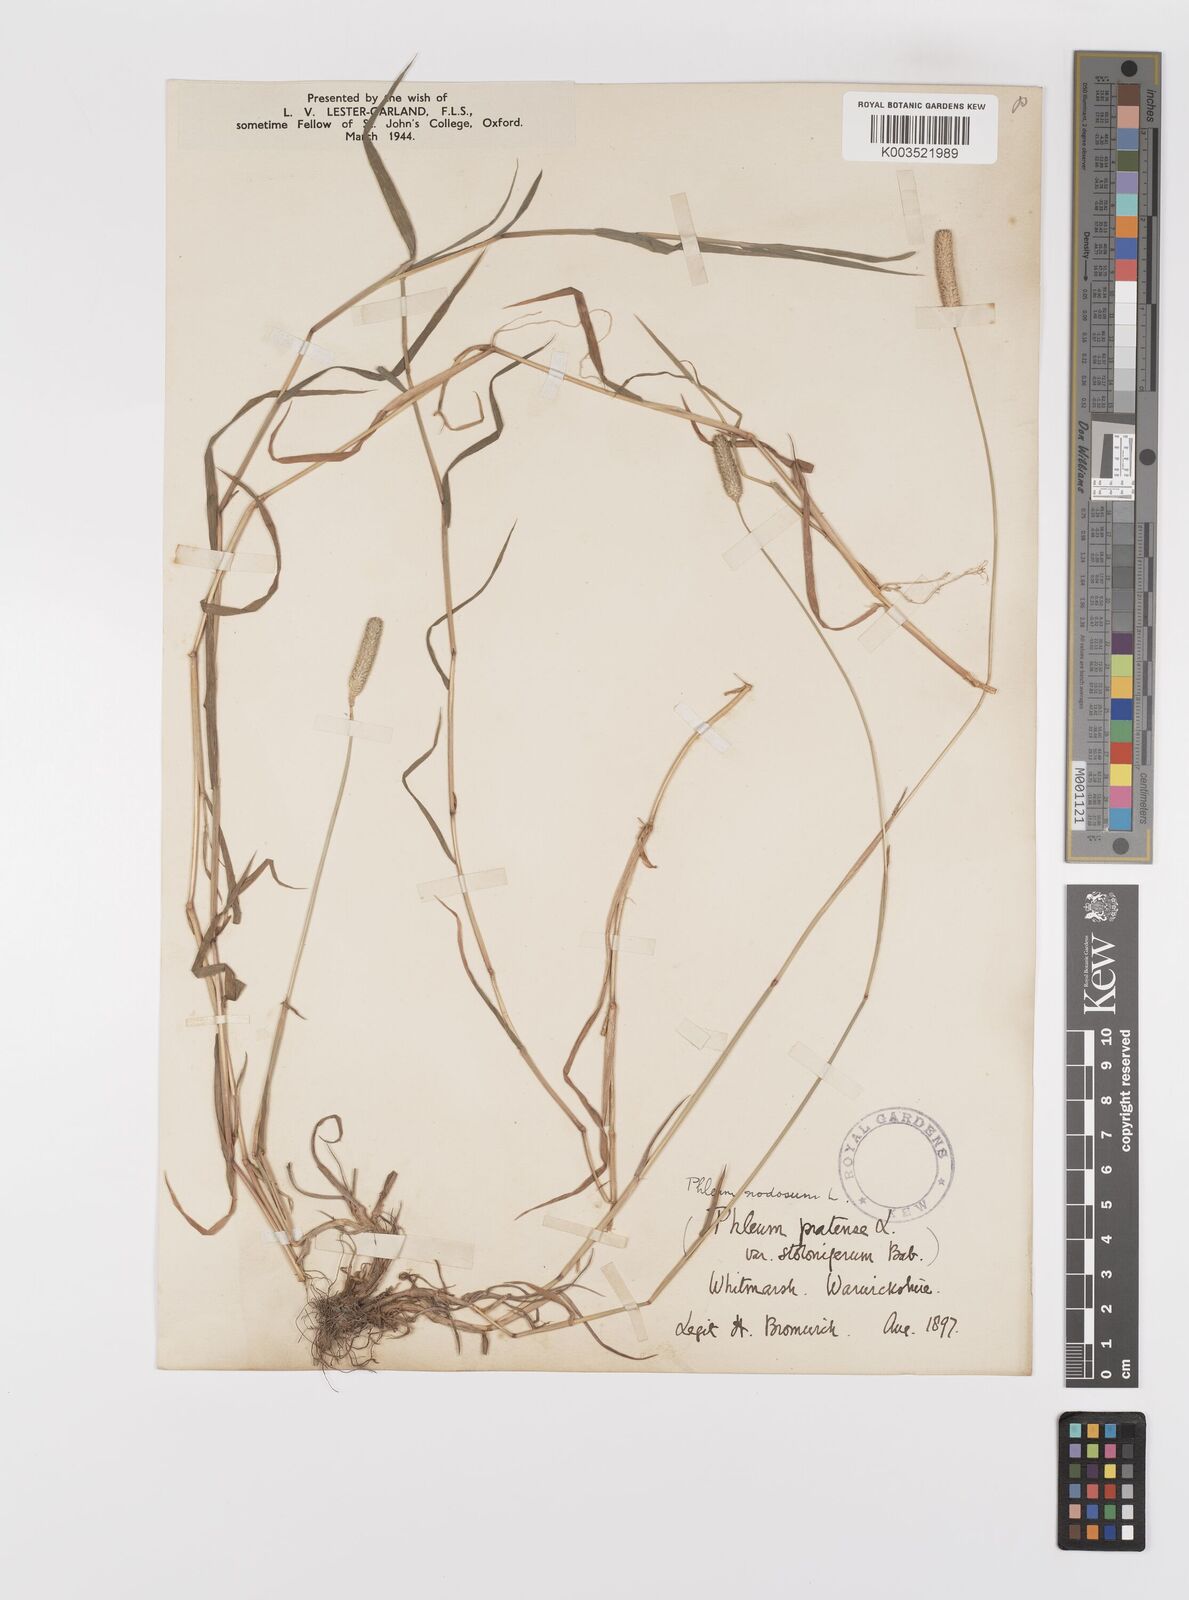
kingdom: Plantae
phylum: Tracheophyta
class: Liliopsida
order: Poales
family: Poaceae
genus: Phleum
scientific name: Phleum bertolonii
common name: Smaller cat's-tail
